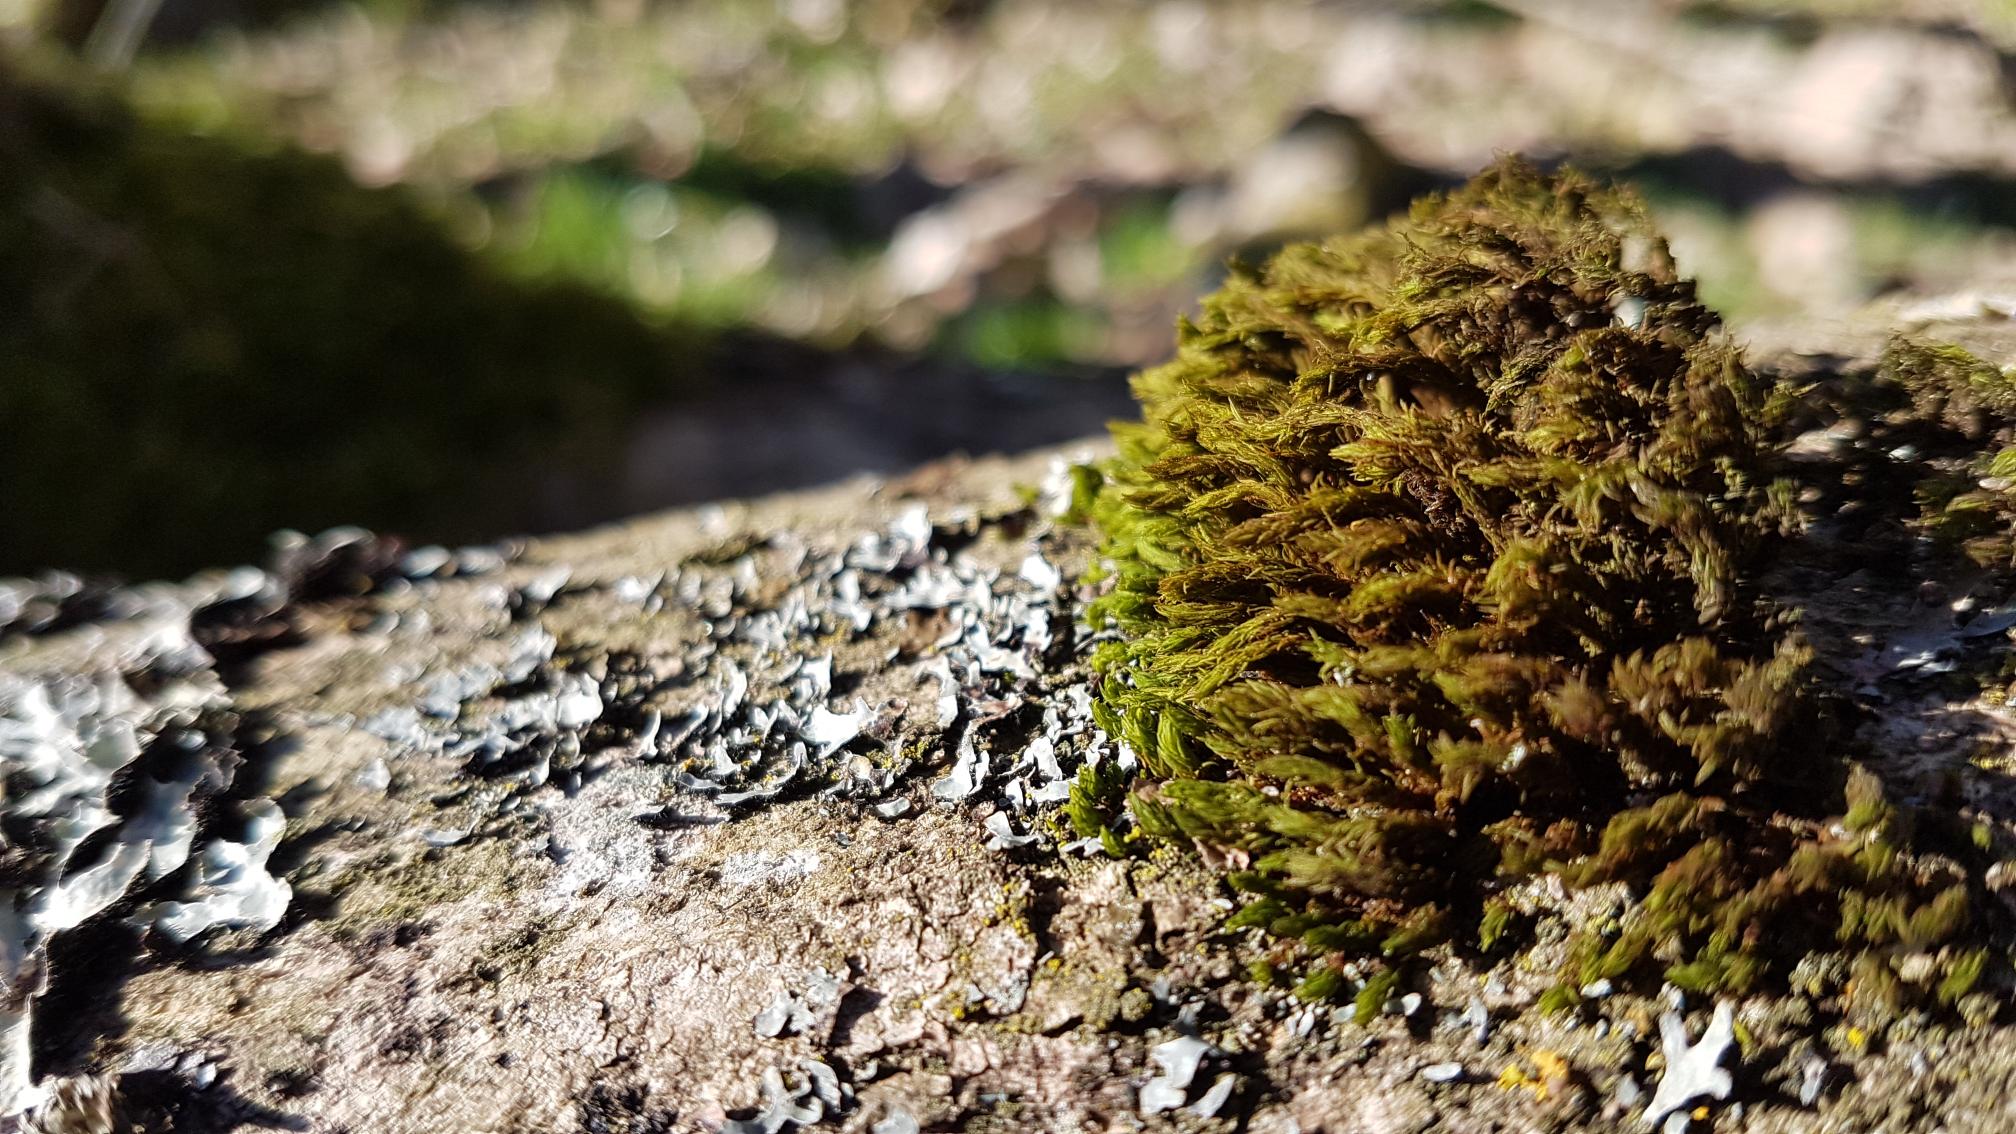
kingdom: Plantae
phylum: Bryophyta
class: Bryopsida
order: Orthotrichales
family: Orthotrichaceae
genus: Pulvigera
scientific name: Pulvigera lyellii
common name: Stor furehætte
